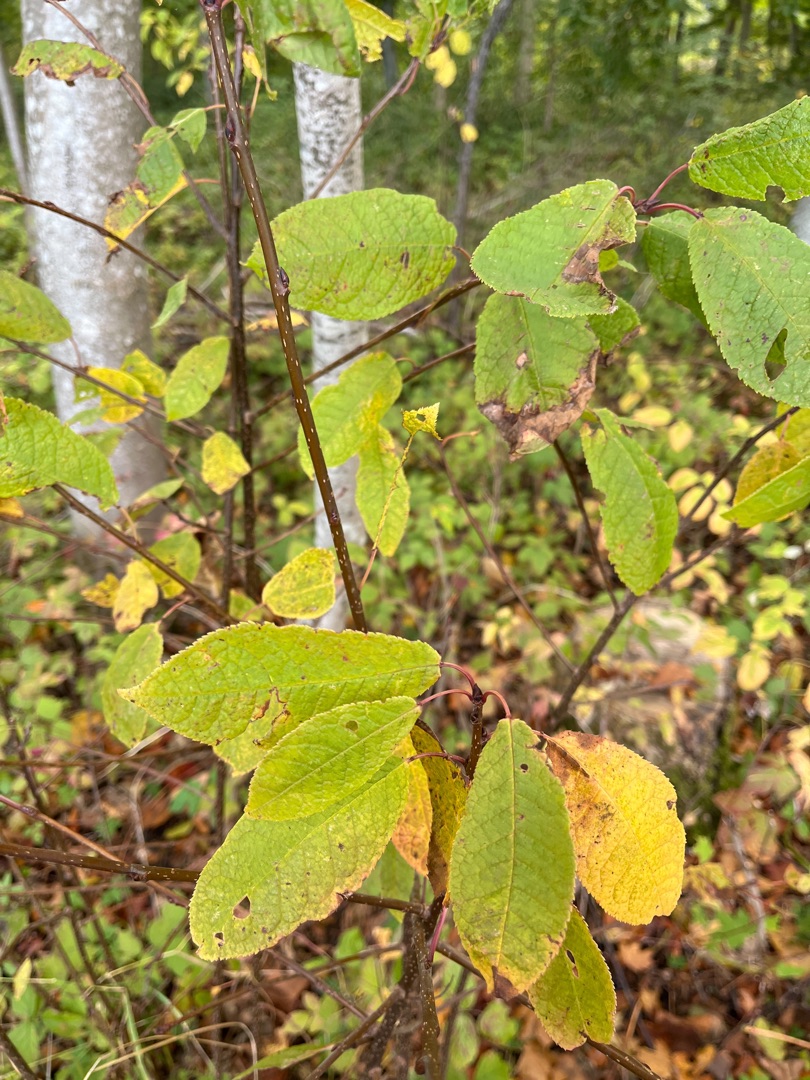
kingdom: Plantae
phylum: Tracheophyta
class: Magnoliopsida
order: Rosales
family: Rosaceae
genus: Prunus
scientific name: Prunus padus
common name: Almindelig hæg
